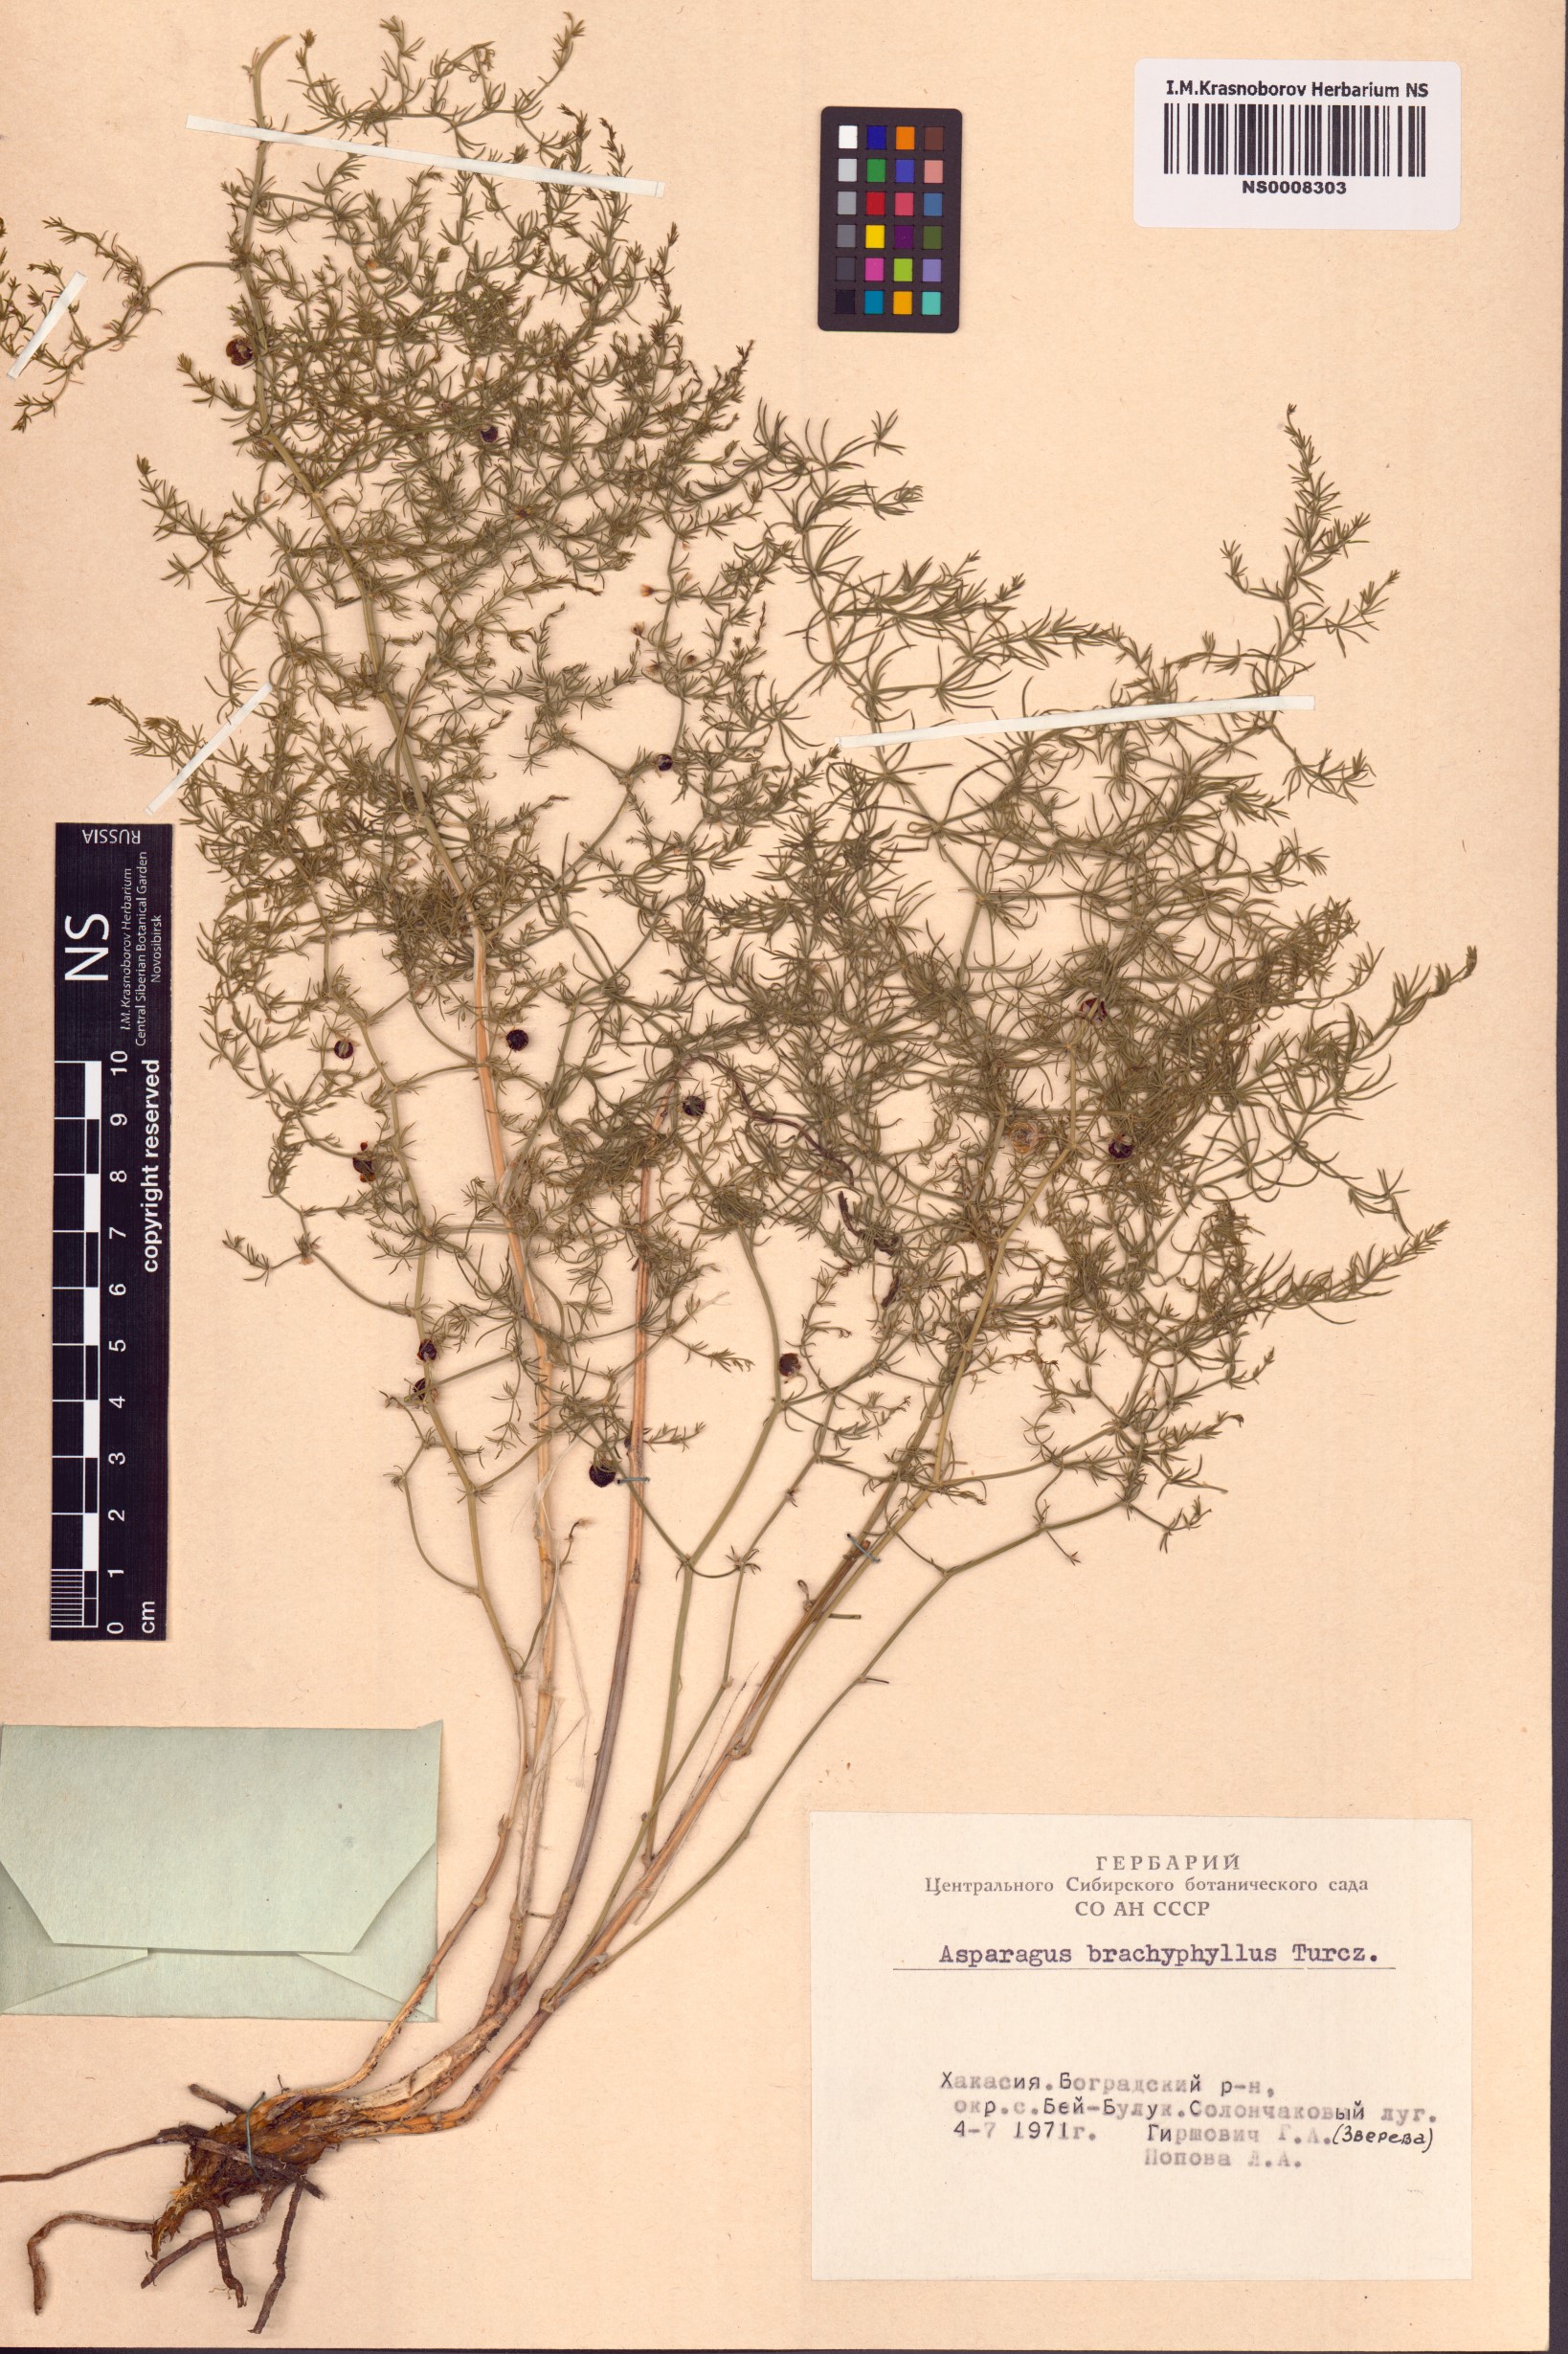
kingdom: Plantae
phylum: Tracheophyta
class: Liliopsida
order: Asparagales
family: Asparagaceae
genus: Asparagus
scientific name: Asparagus brachyphyllus
